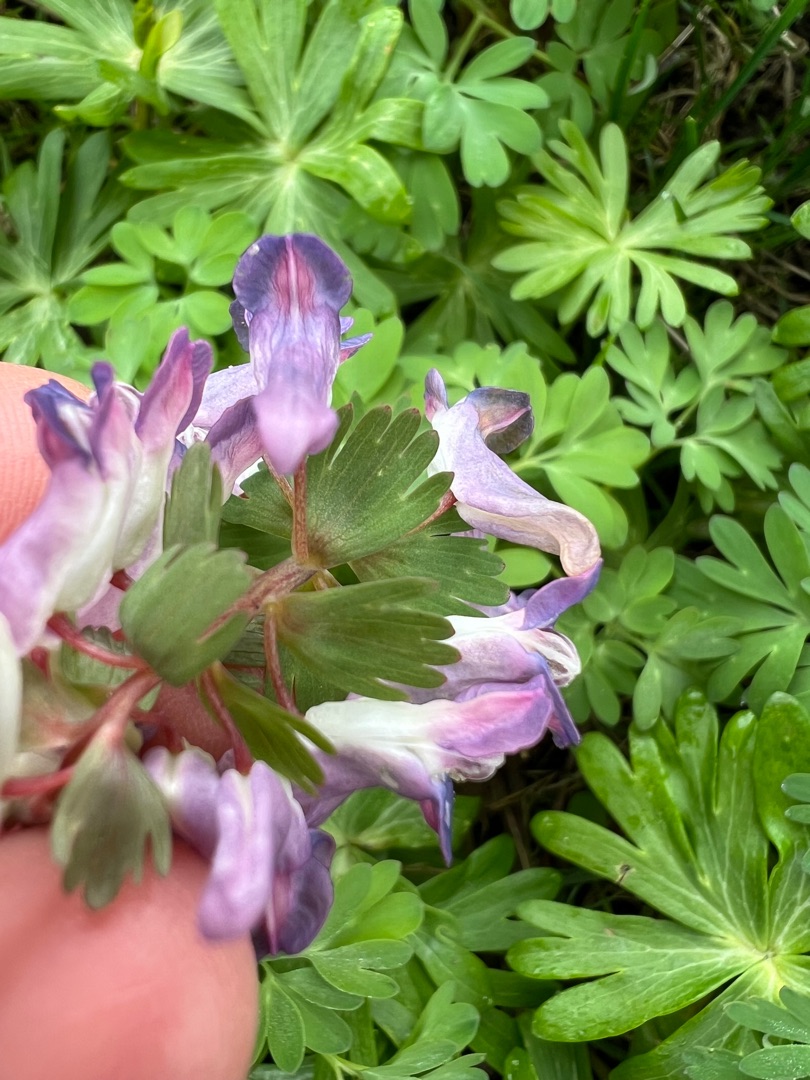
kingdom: Plantae
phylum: Tracheophyta
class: Magnoliopsida
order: Ranunculales
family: Papaveraceae
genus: Corydalis
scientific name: Corydalis solida
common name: Langstilket lærkespore
